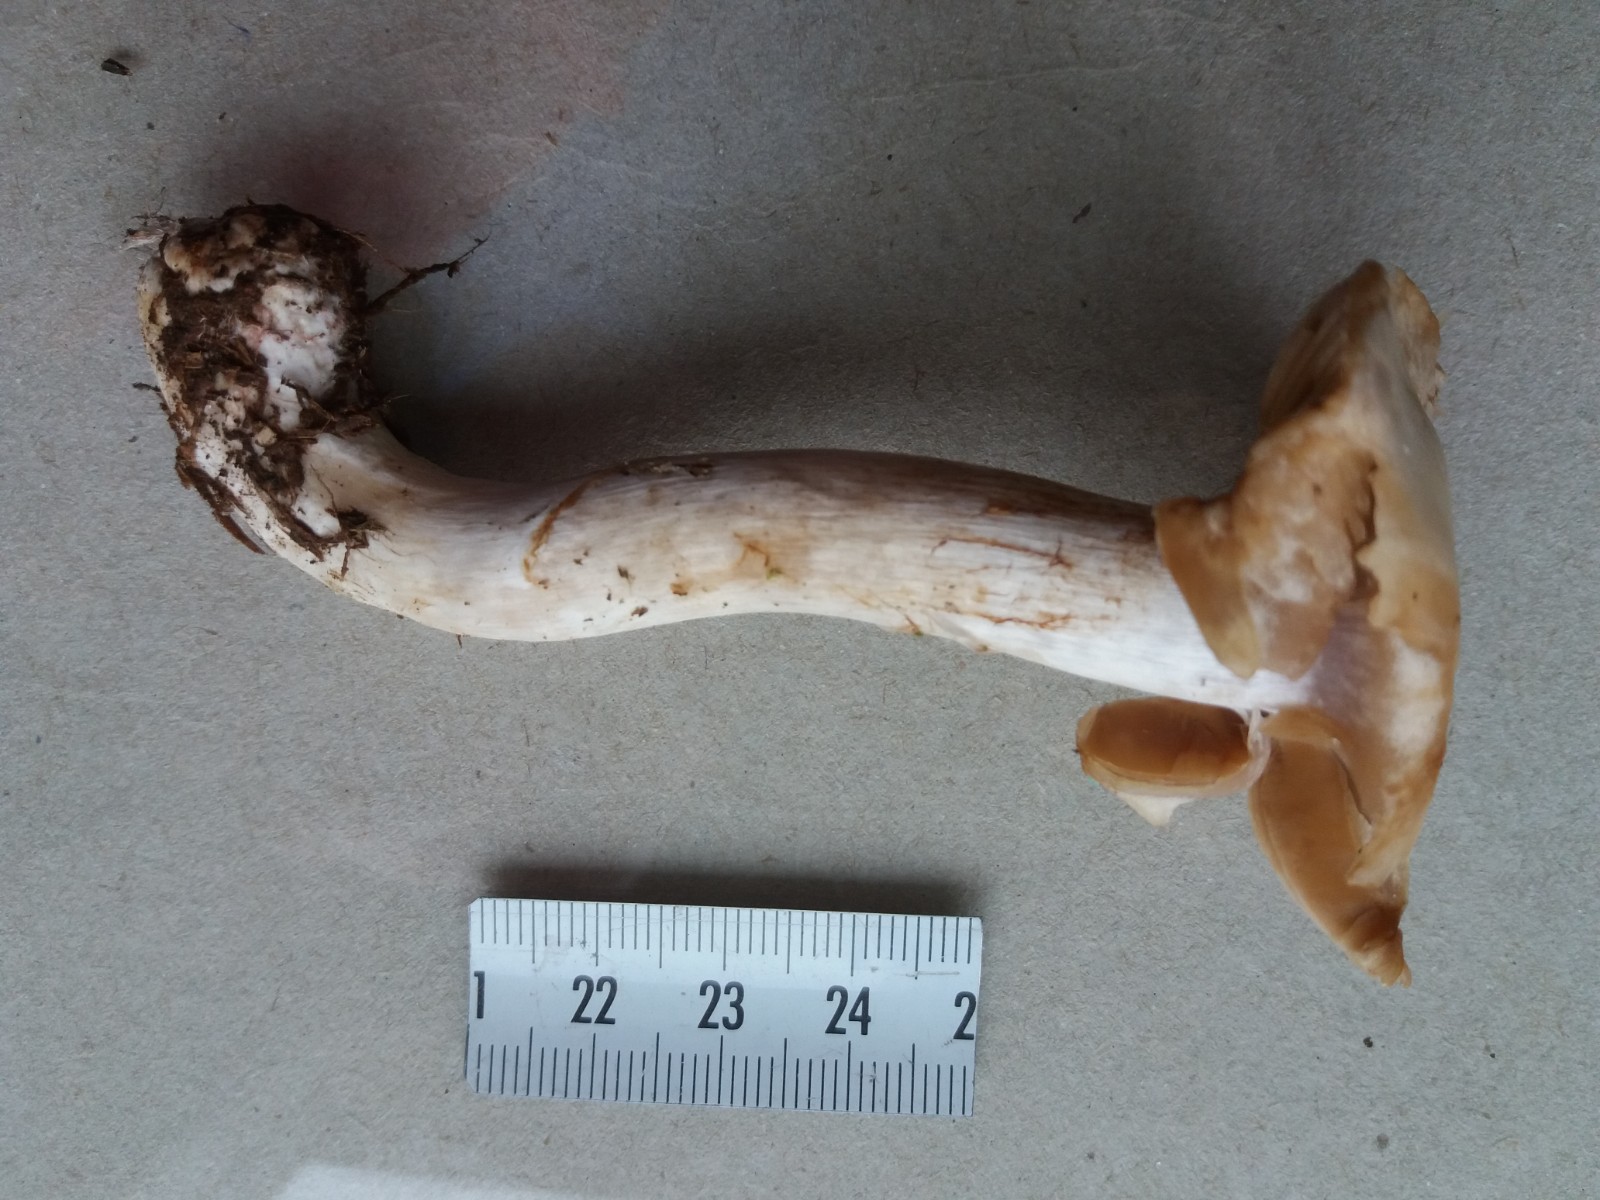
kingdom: Fungi
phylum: Basidiomycota
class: Agaricomycetes
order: Agaricales
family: Cortinariaceae
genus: Cortinarius
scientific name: Cortinarius
